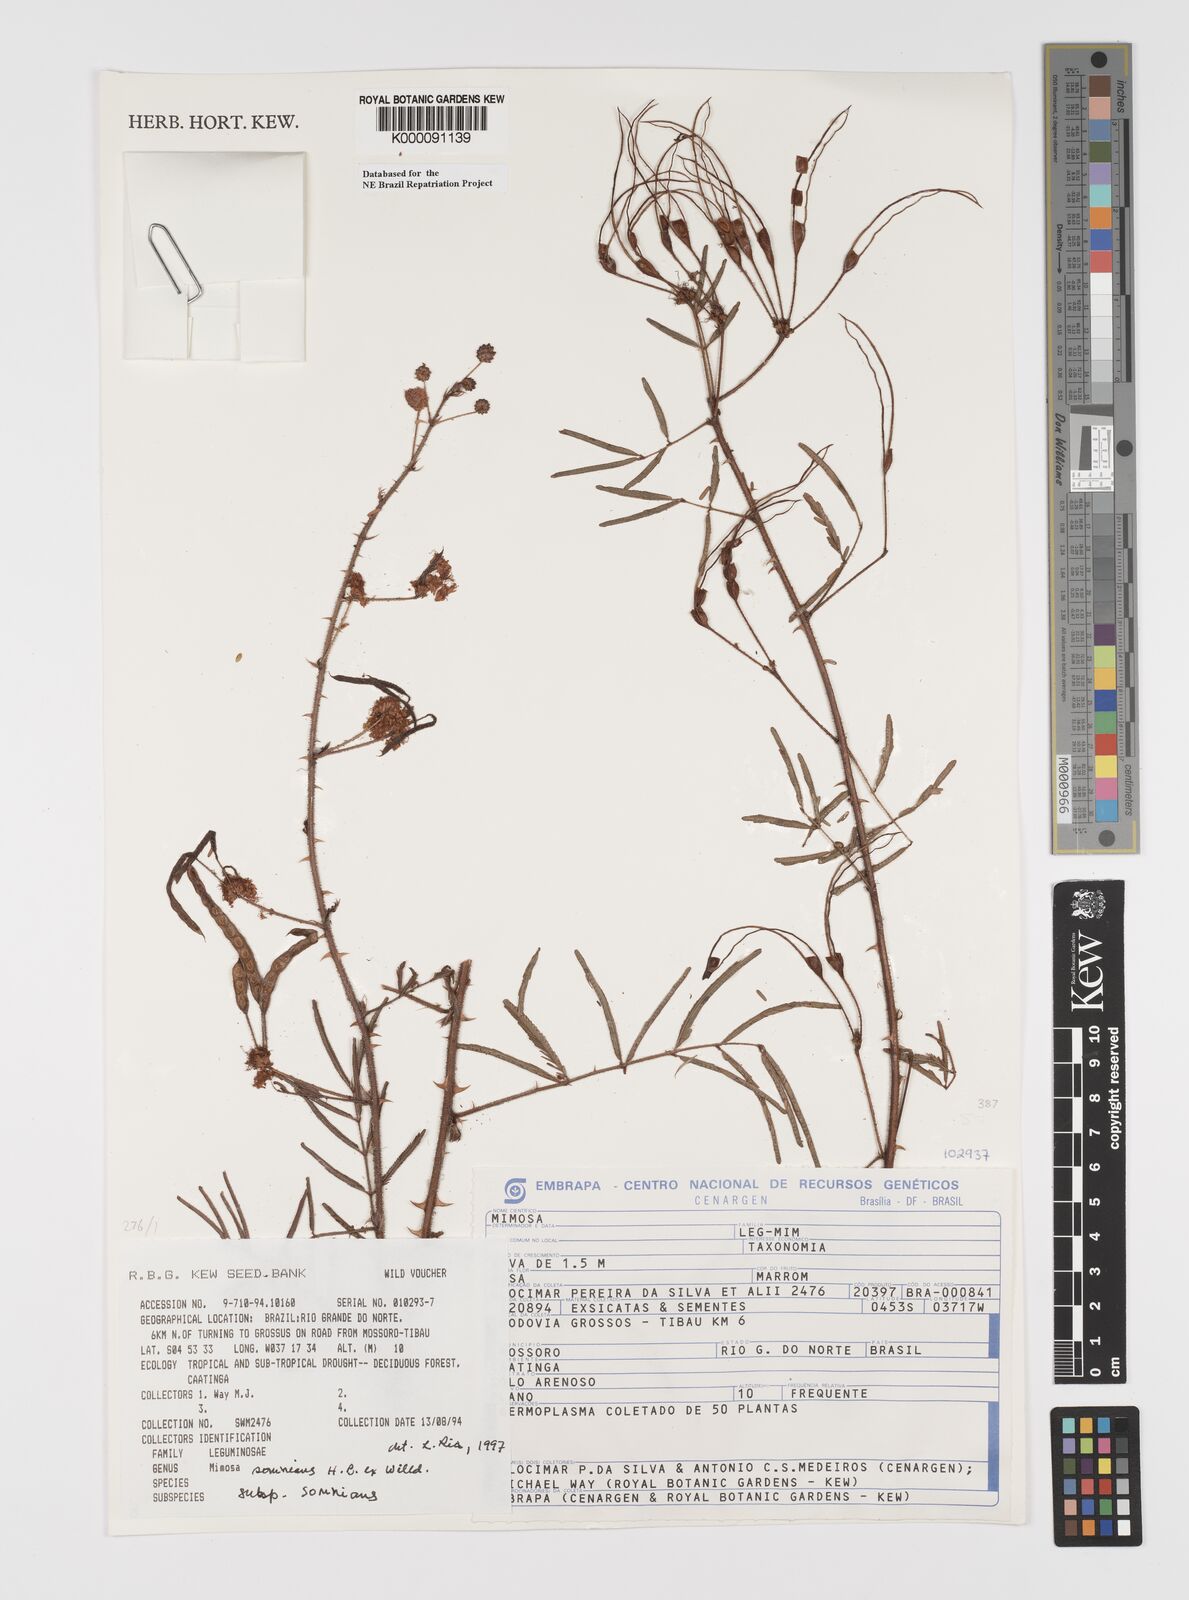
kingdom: Plantae
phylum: Tracheophyta
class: Magnoliopsida
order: Fabales
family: Fabaceae
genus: Mimosa
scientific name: Mimosa somnians
